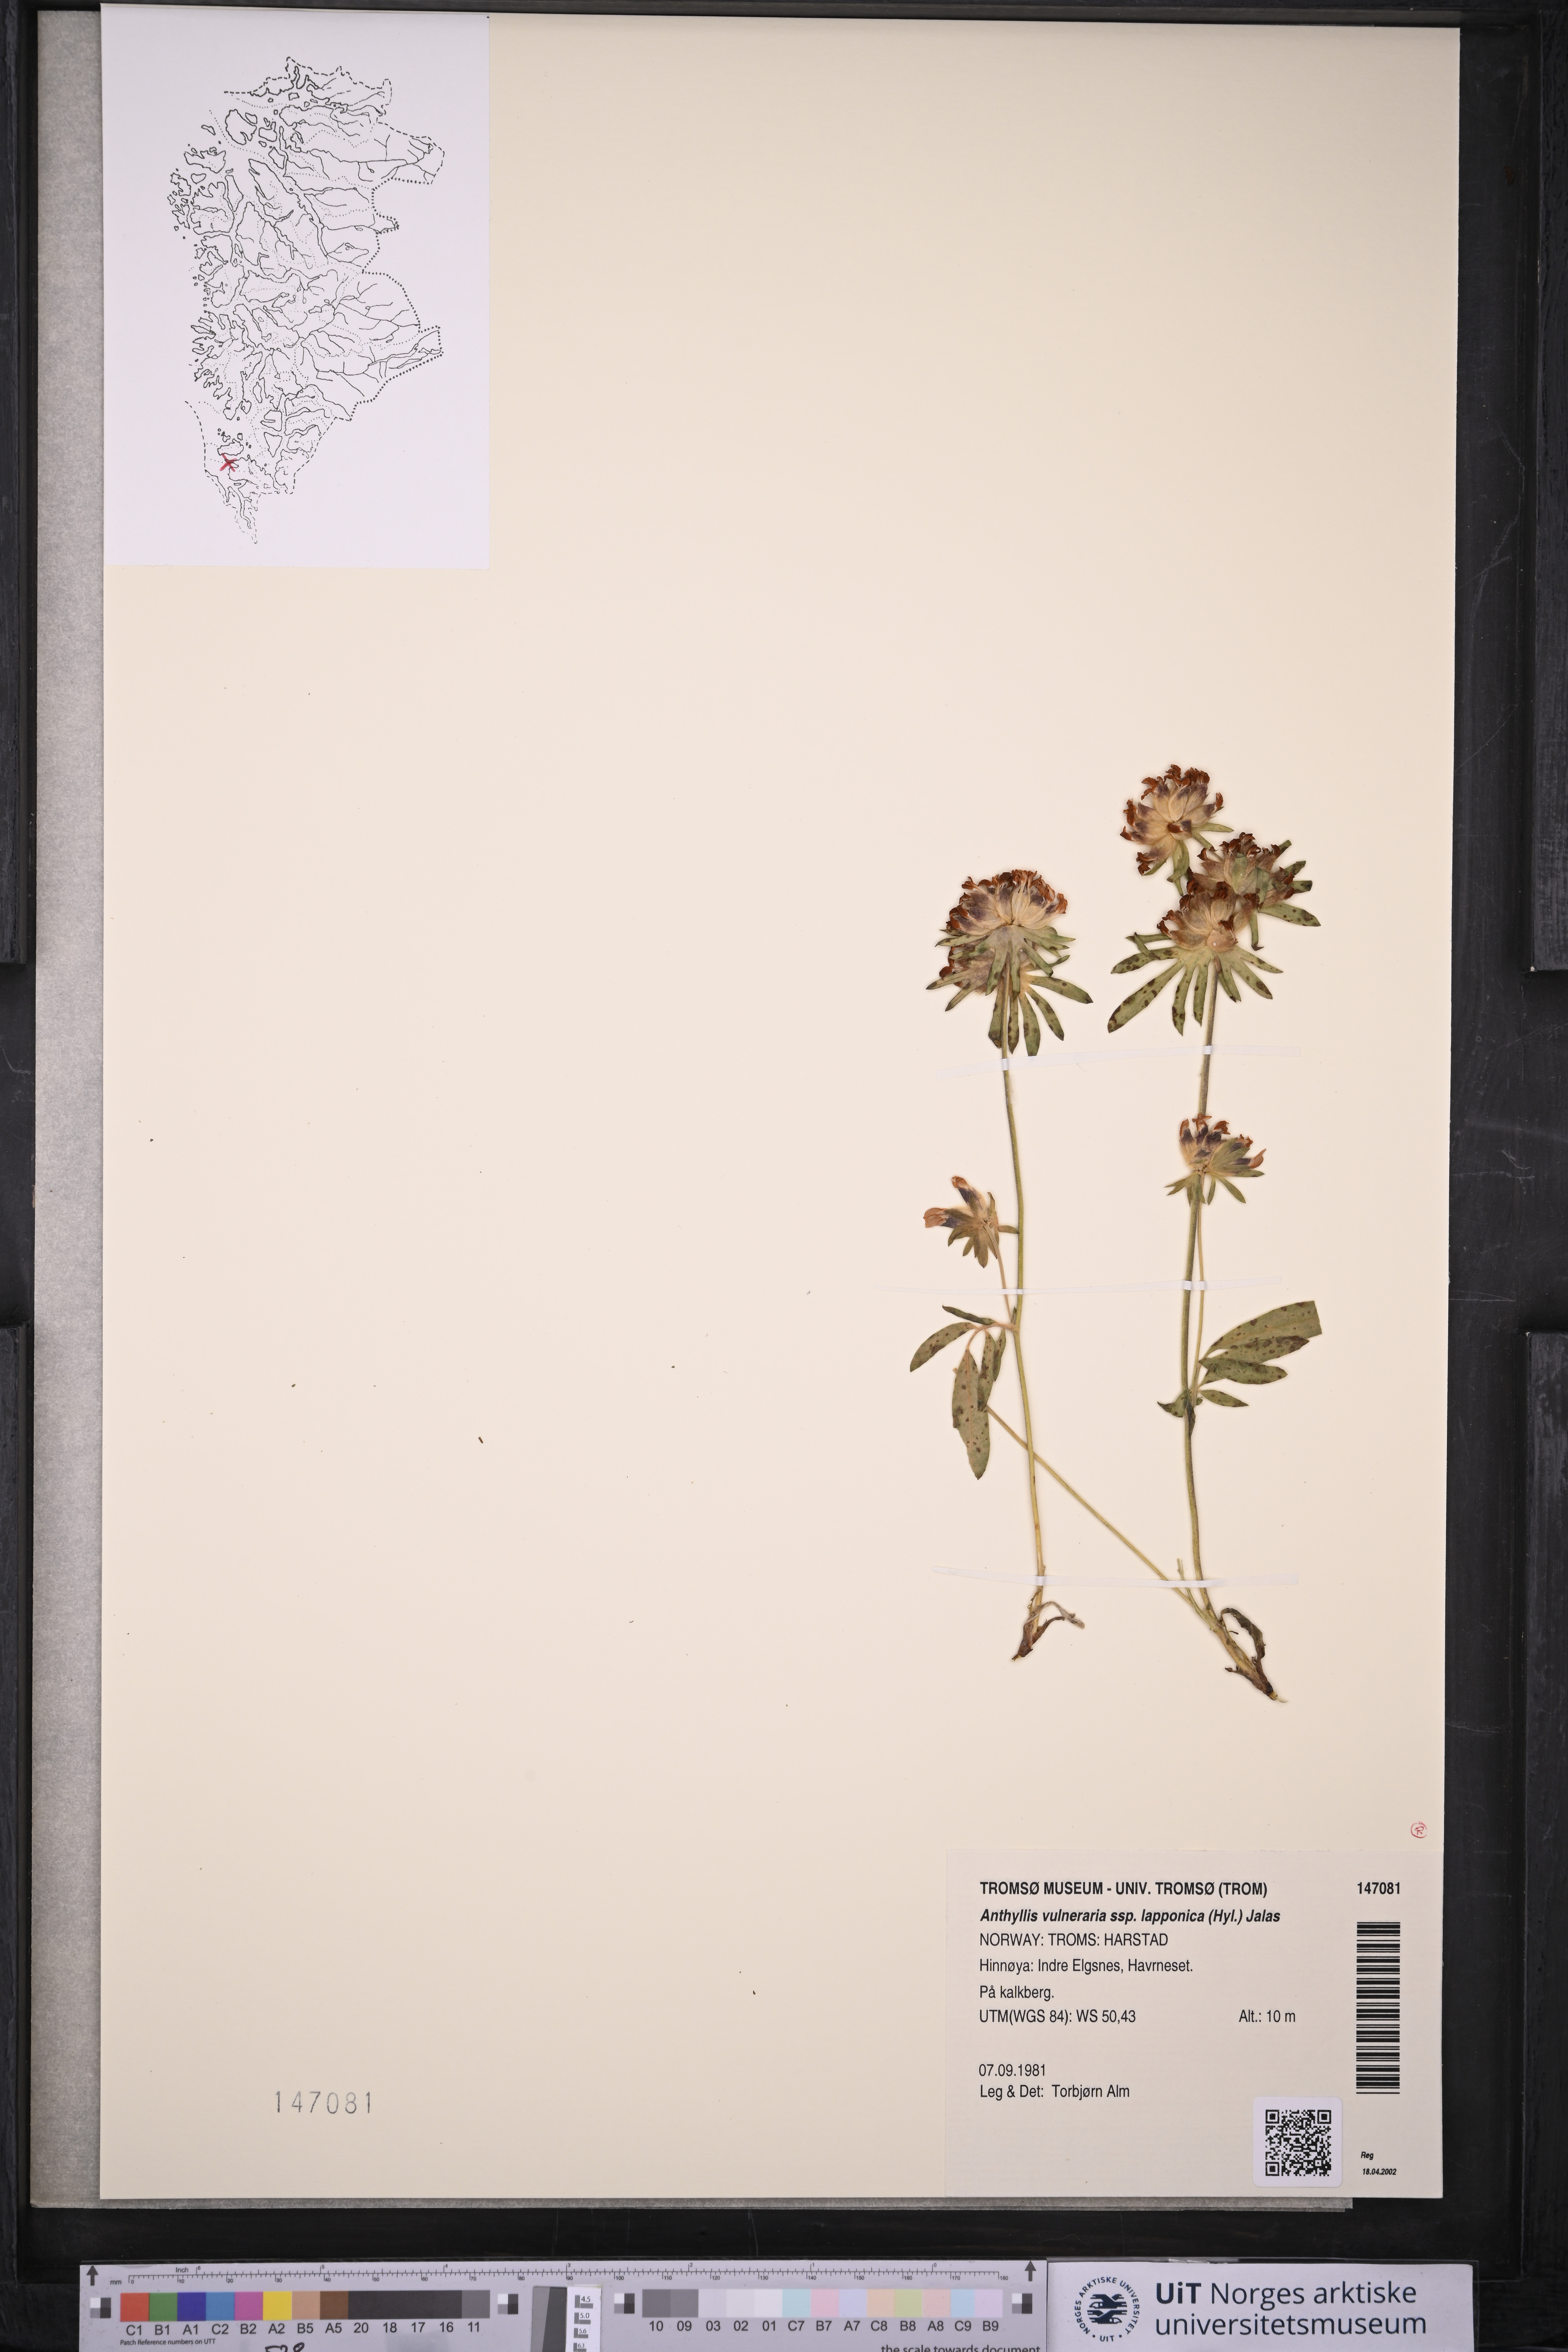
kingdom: Plantae
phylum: Tracheophyta
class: Magnoliopsida
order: Fabales
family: Fabaceae
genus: Anthyllis
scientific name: Anthyllis vulneraria
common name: Kidney vetch
